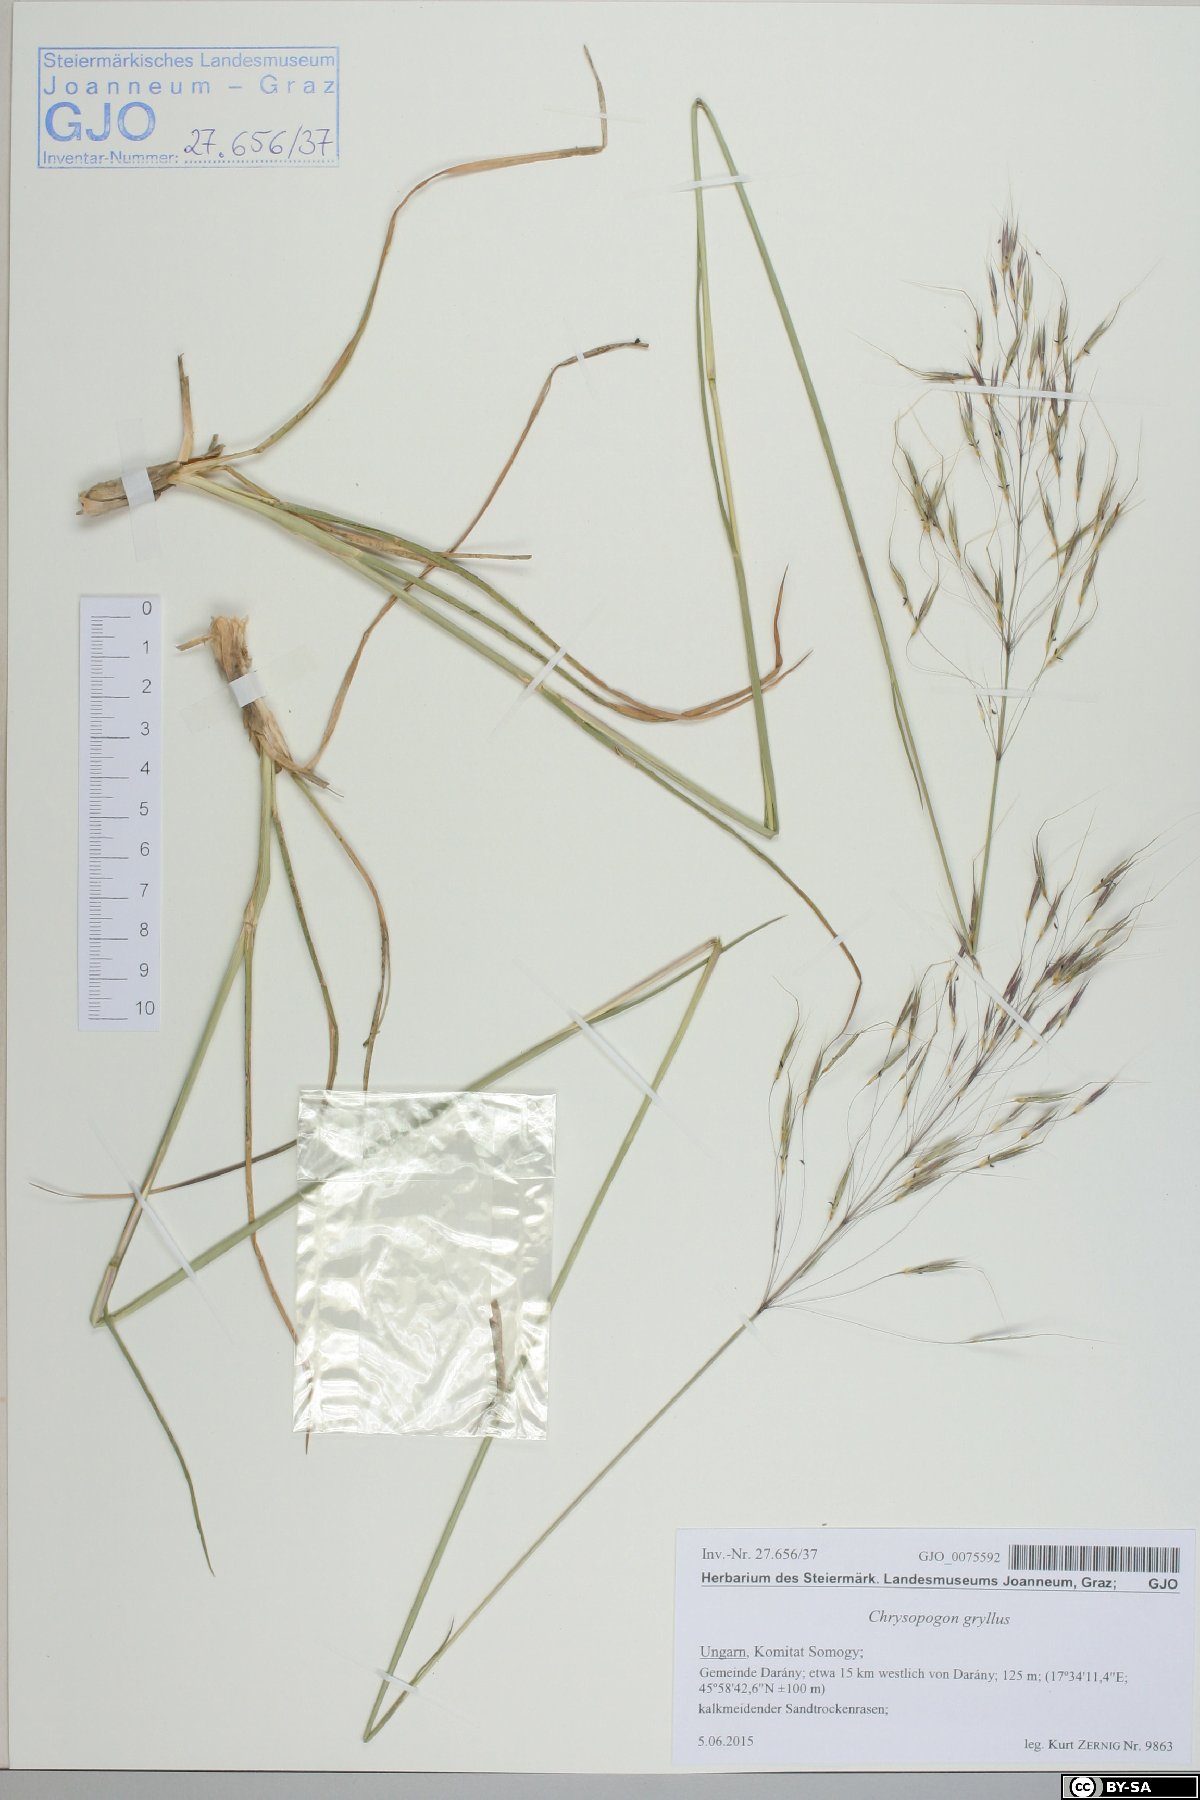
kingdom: Plantae
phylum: Tracheophyta
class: Liliopsida
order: Poales
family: Poaceae
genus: Chrysopogon
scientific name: Chrysopogon gryllus
